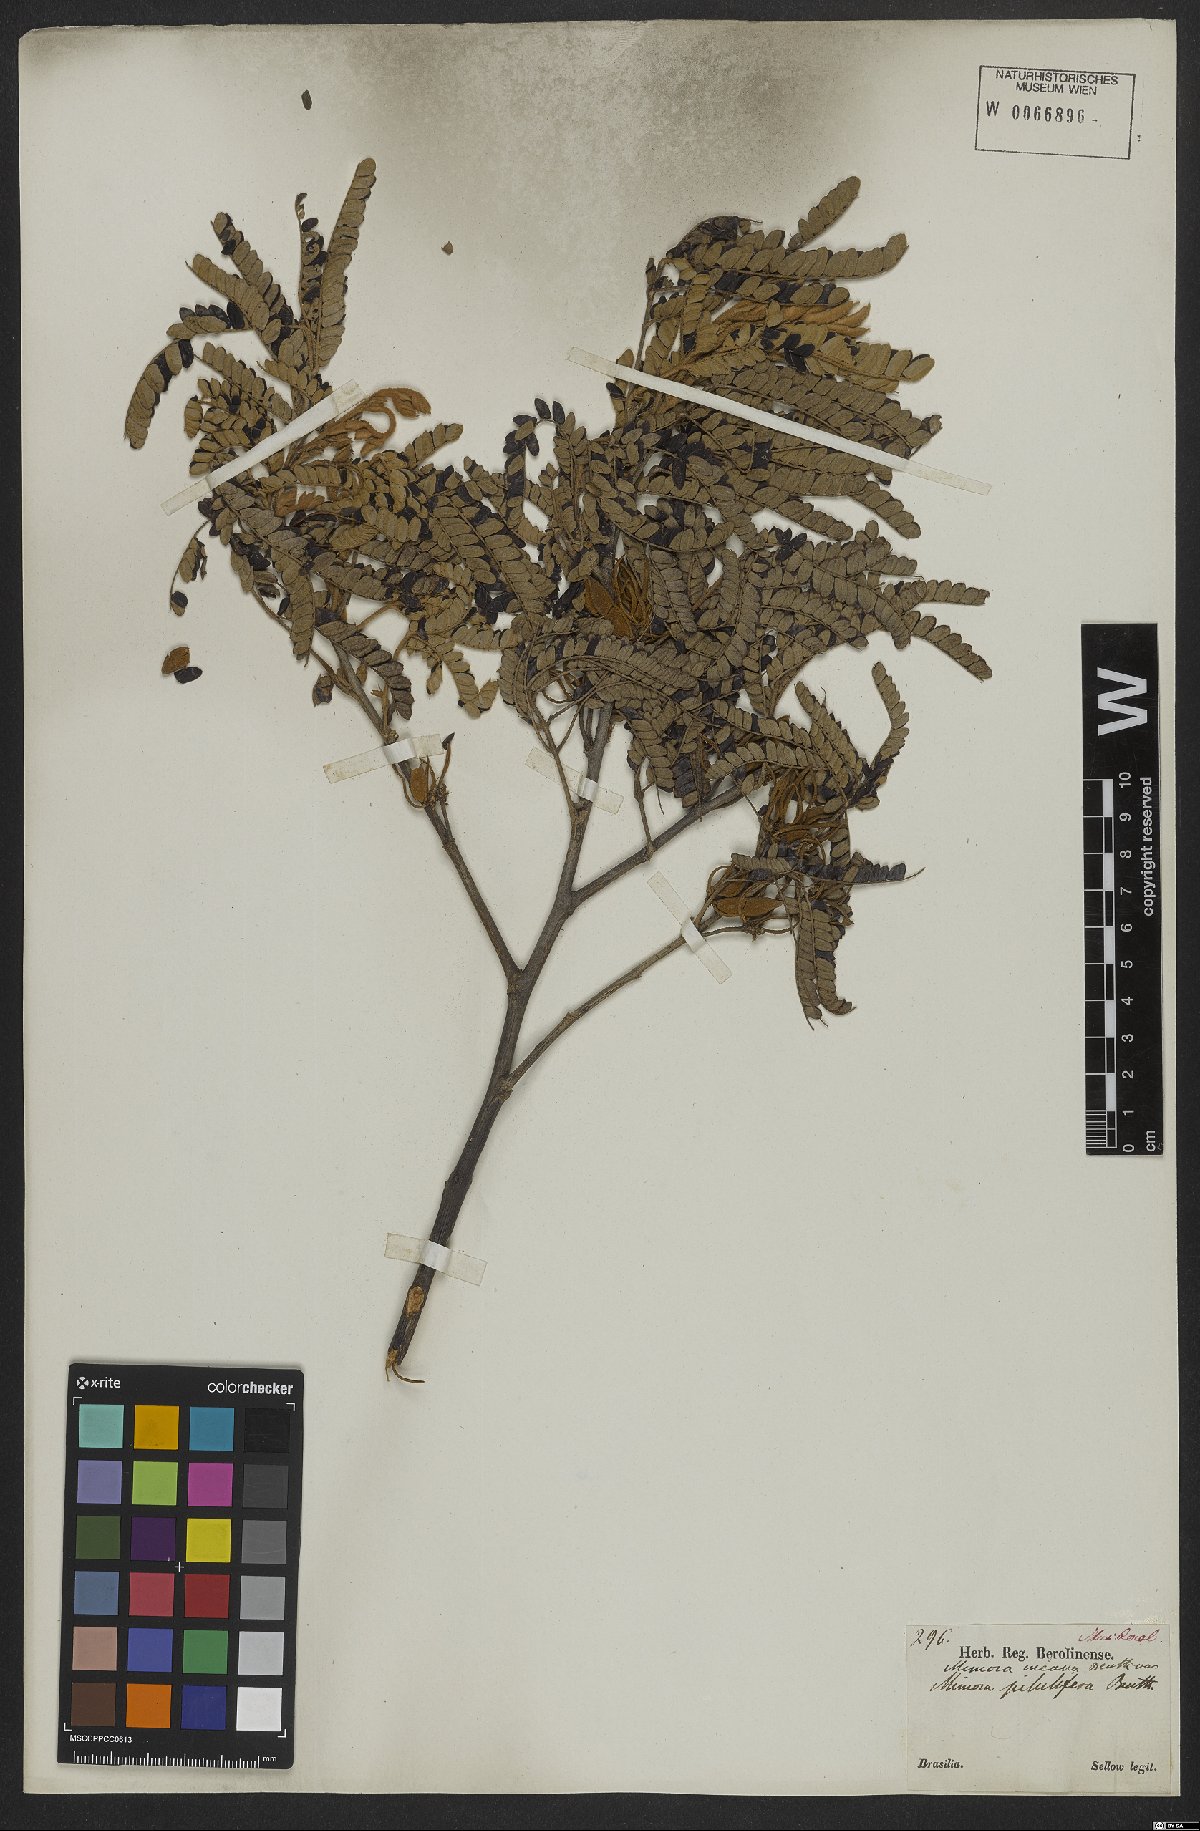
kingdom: Plantae
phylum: Tracheophyta
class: Magnoliopsida
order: Fabales
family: Fabaceae
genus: Mimosa
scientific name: Mimosa incana
